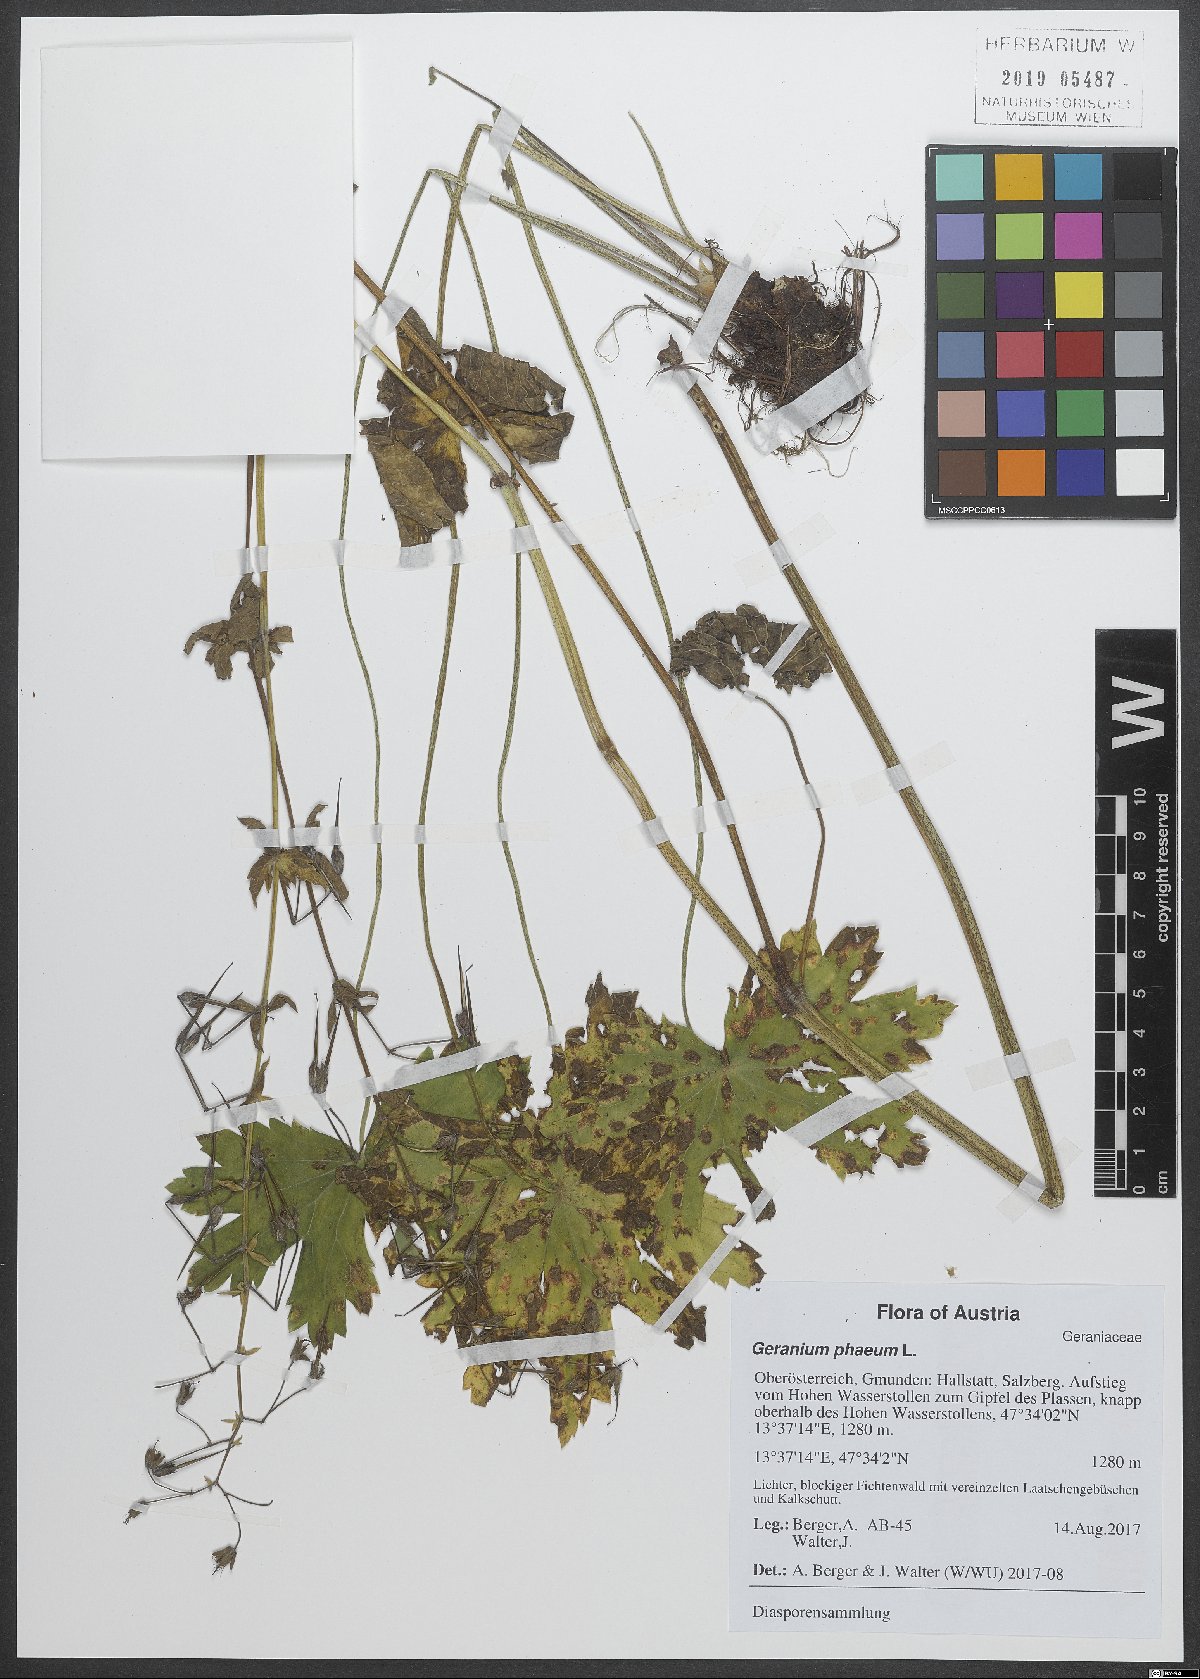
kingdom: Plantae
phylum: Tracheophyta
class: Magnoliopsida
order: Geraniales
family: Geraniaceae
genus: Geranium
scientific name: Geranium phaeum
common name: Dusky crane's-bill
